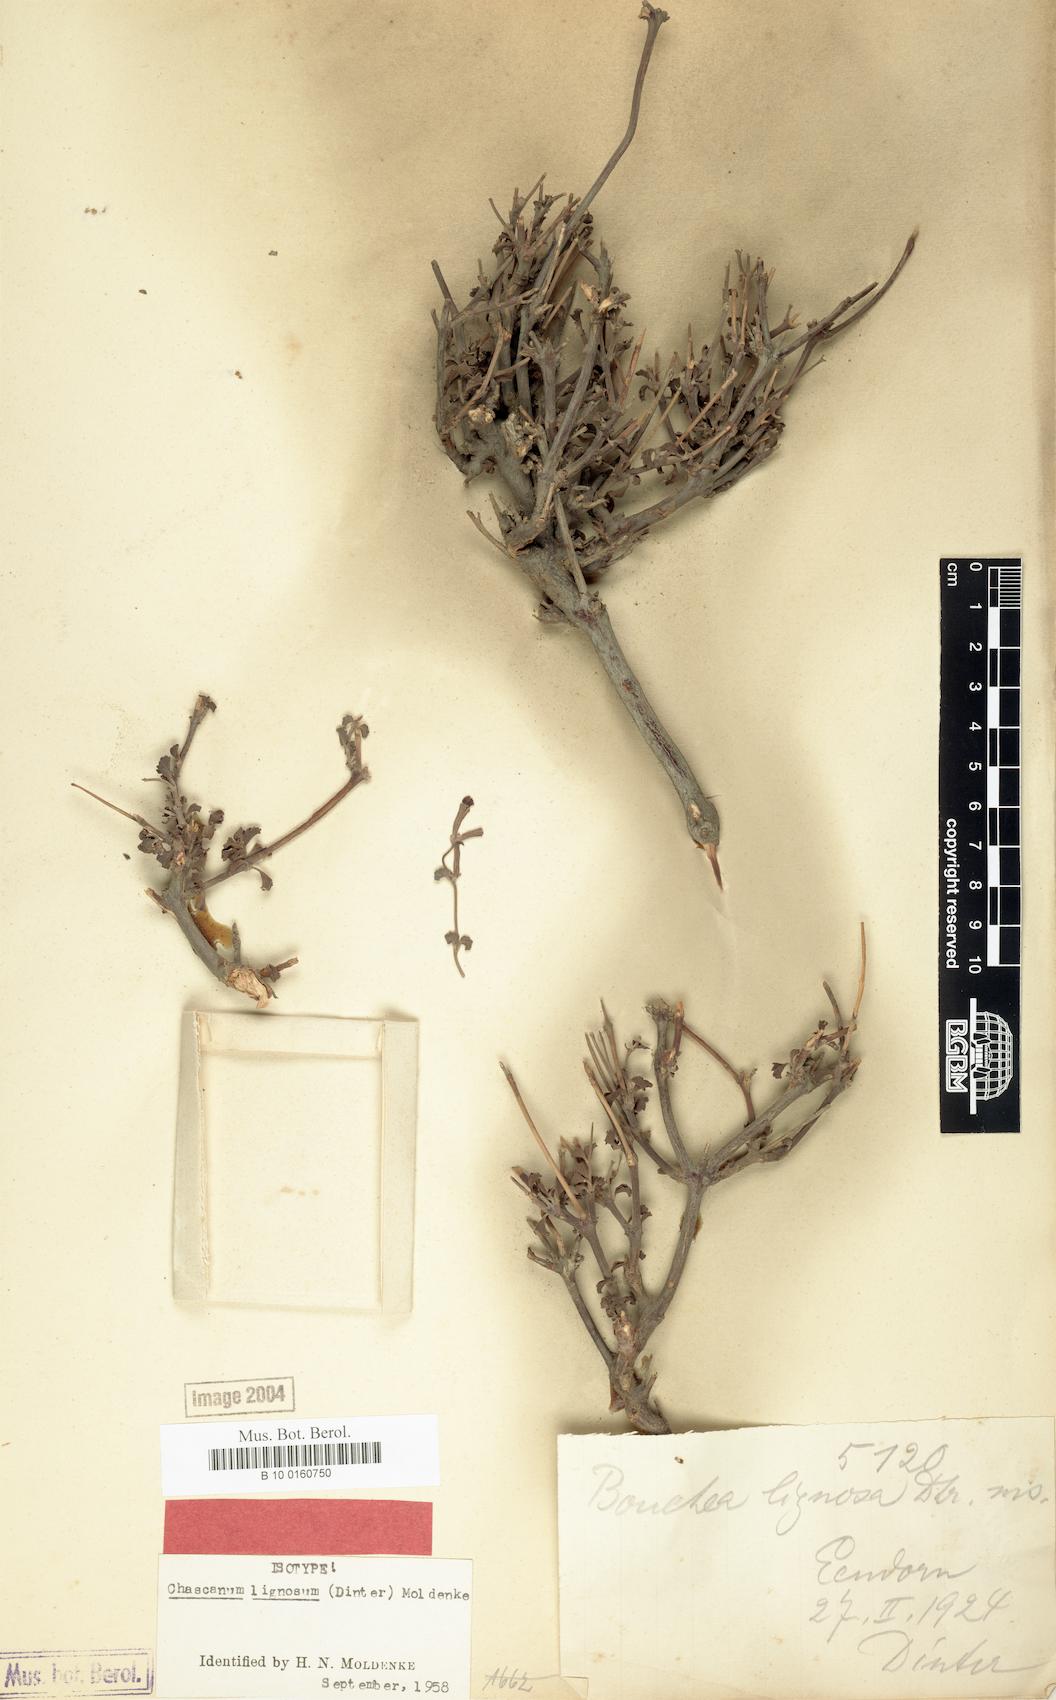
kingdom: Plantae
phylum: Tracheophyta
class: Magnoliopsida
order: Lamiales
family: Verbenaceae
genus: Chascanum
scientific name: Chascanum pumilum
